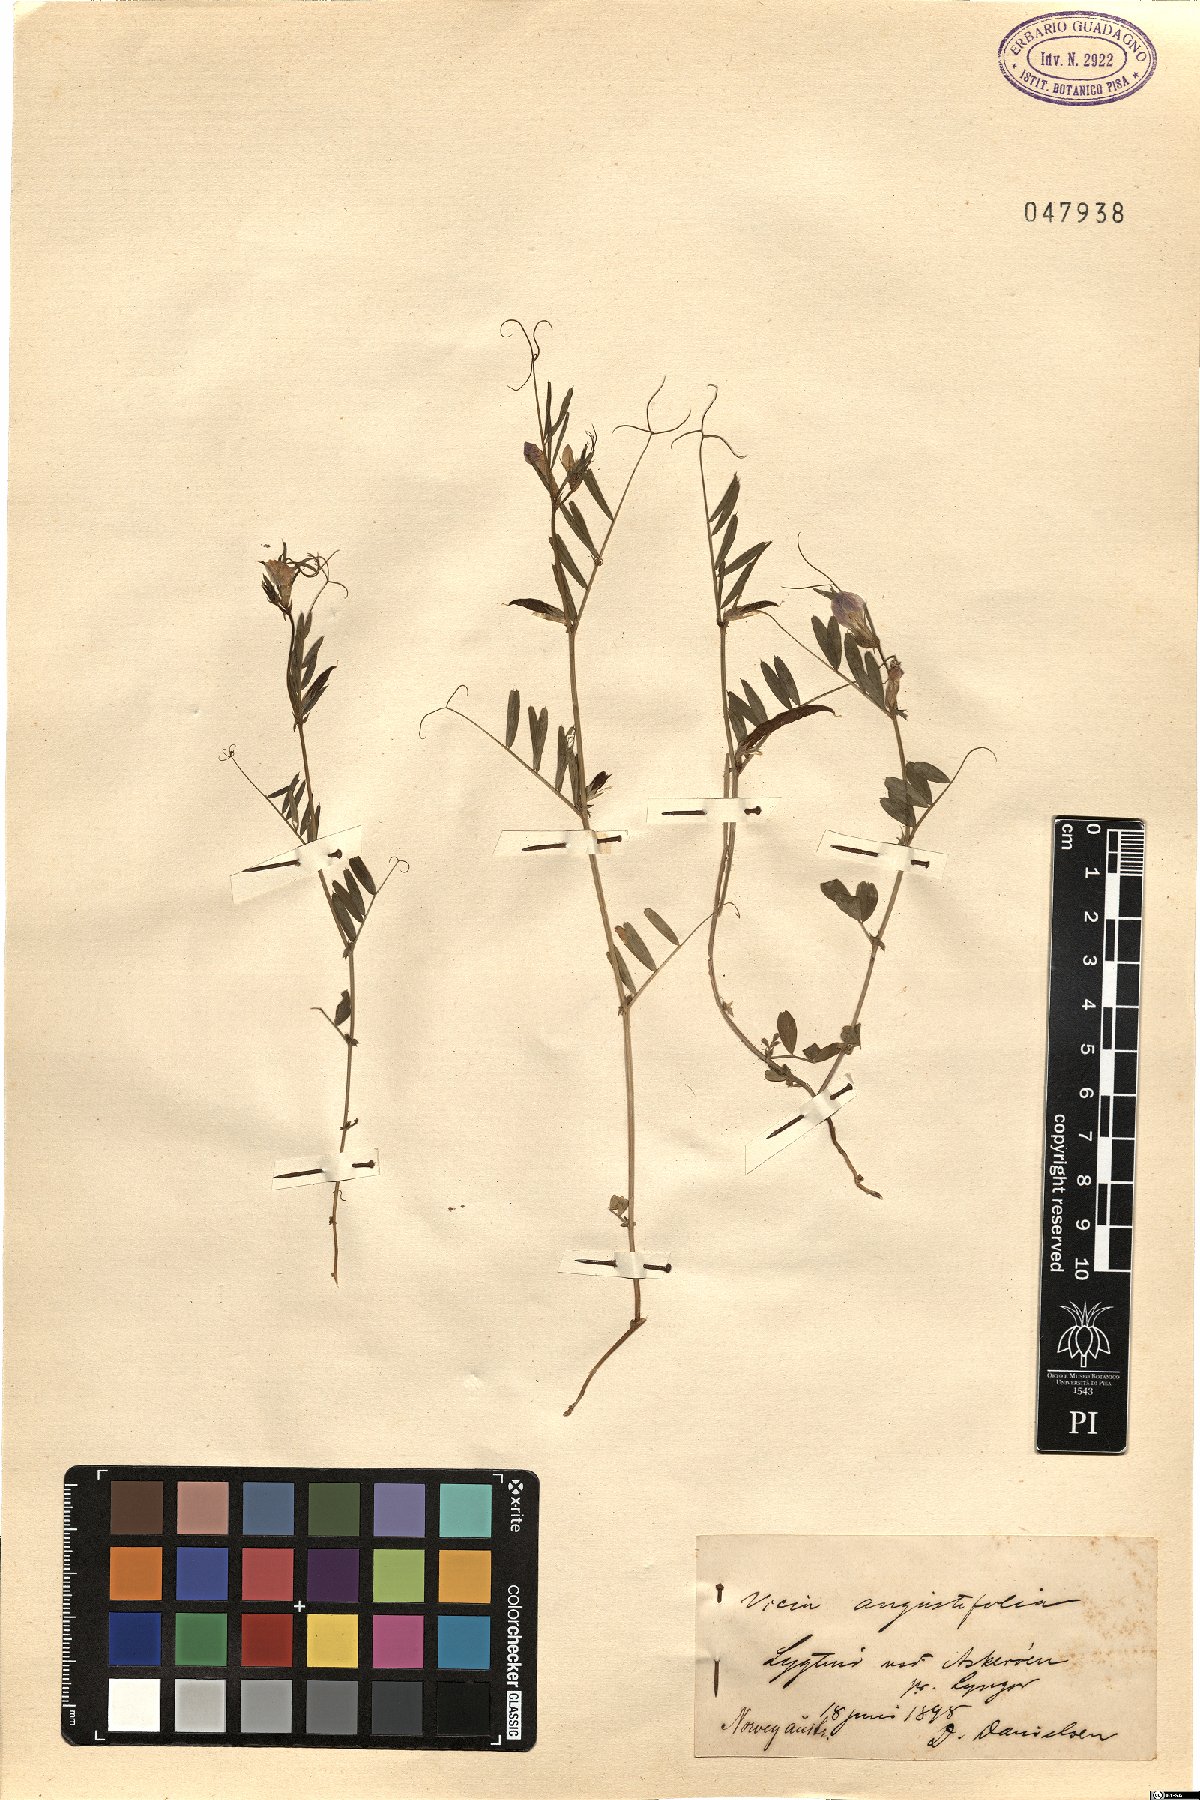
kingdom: Plantae
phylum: Tracheophyta
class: Magnoliopsida
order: Fabales
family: Fabaceae
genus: Vicia
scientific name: Vicia sativa
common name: Garden vetch
